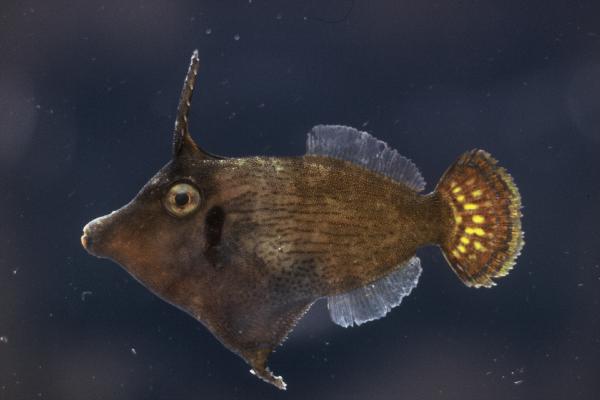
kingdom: Animalia
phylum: Chordata
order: Tetraodontiformes
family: Monacanthidae
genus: Pervagor
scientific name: Pervagor janthinosoma
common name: Blackbar filefish
